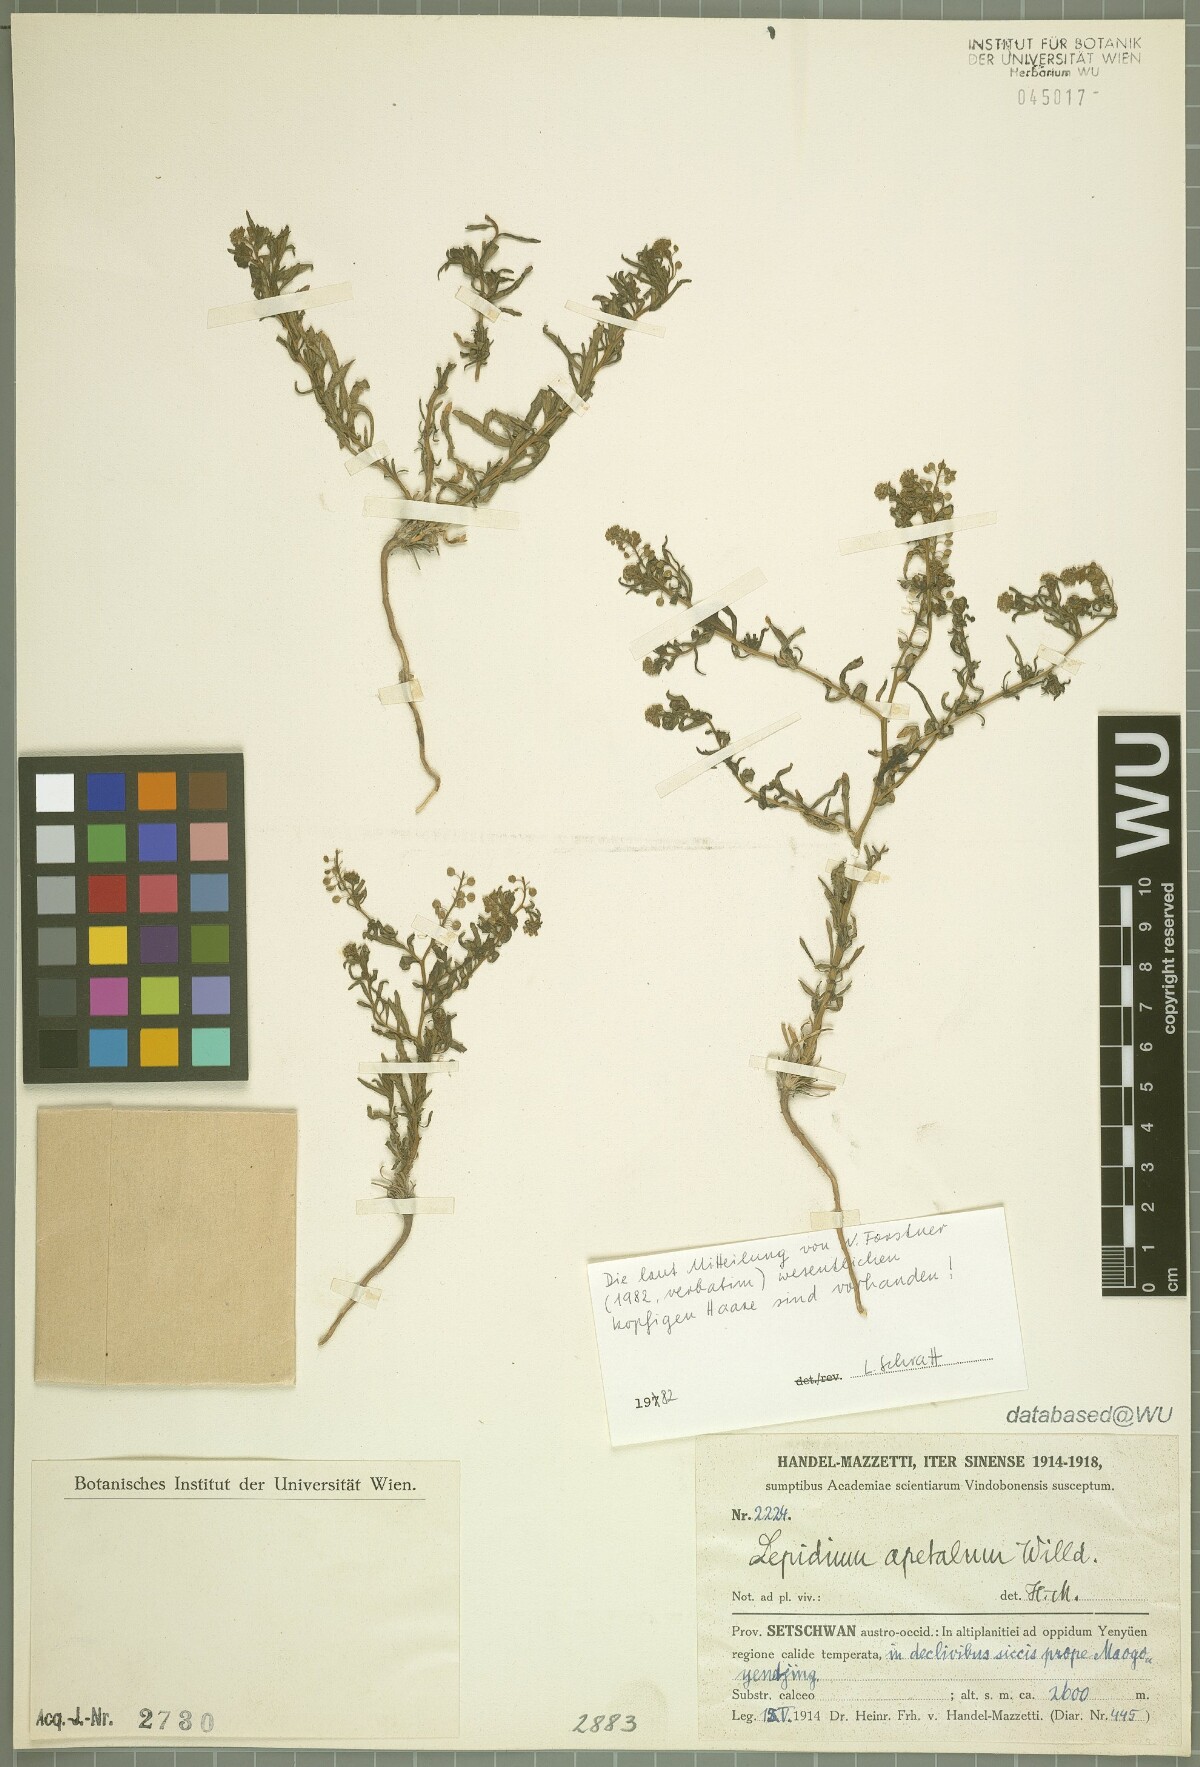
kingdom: Plantae
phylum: Tracheophyta
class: Magnoliopsida
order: Brassicales
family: Brassicaceae
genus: Lepidium
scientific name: Lepidium apetalum
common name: Pepperweed
